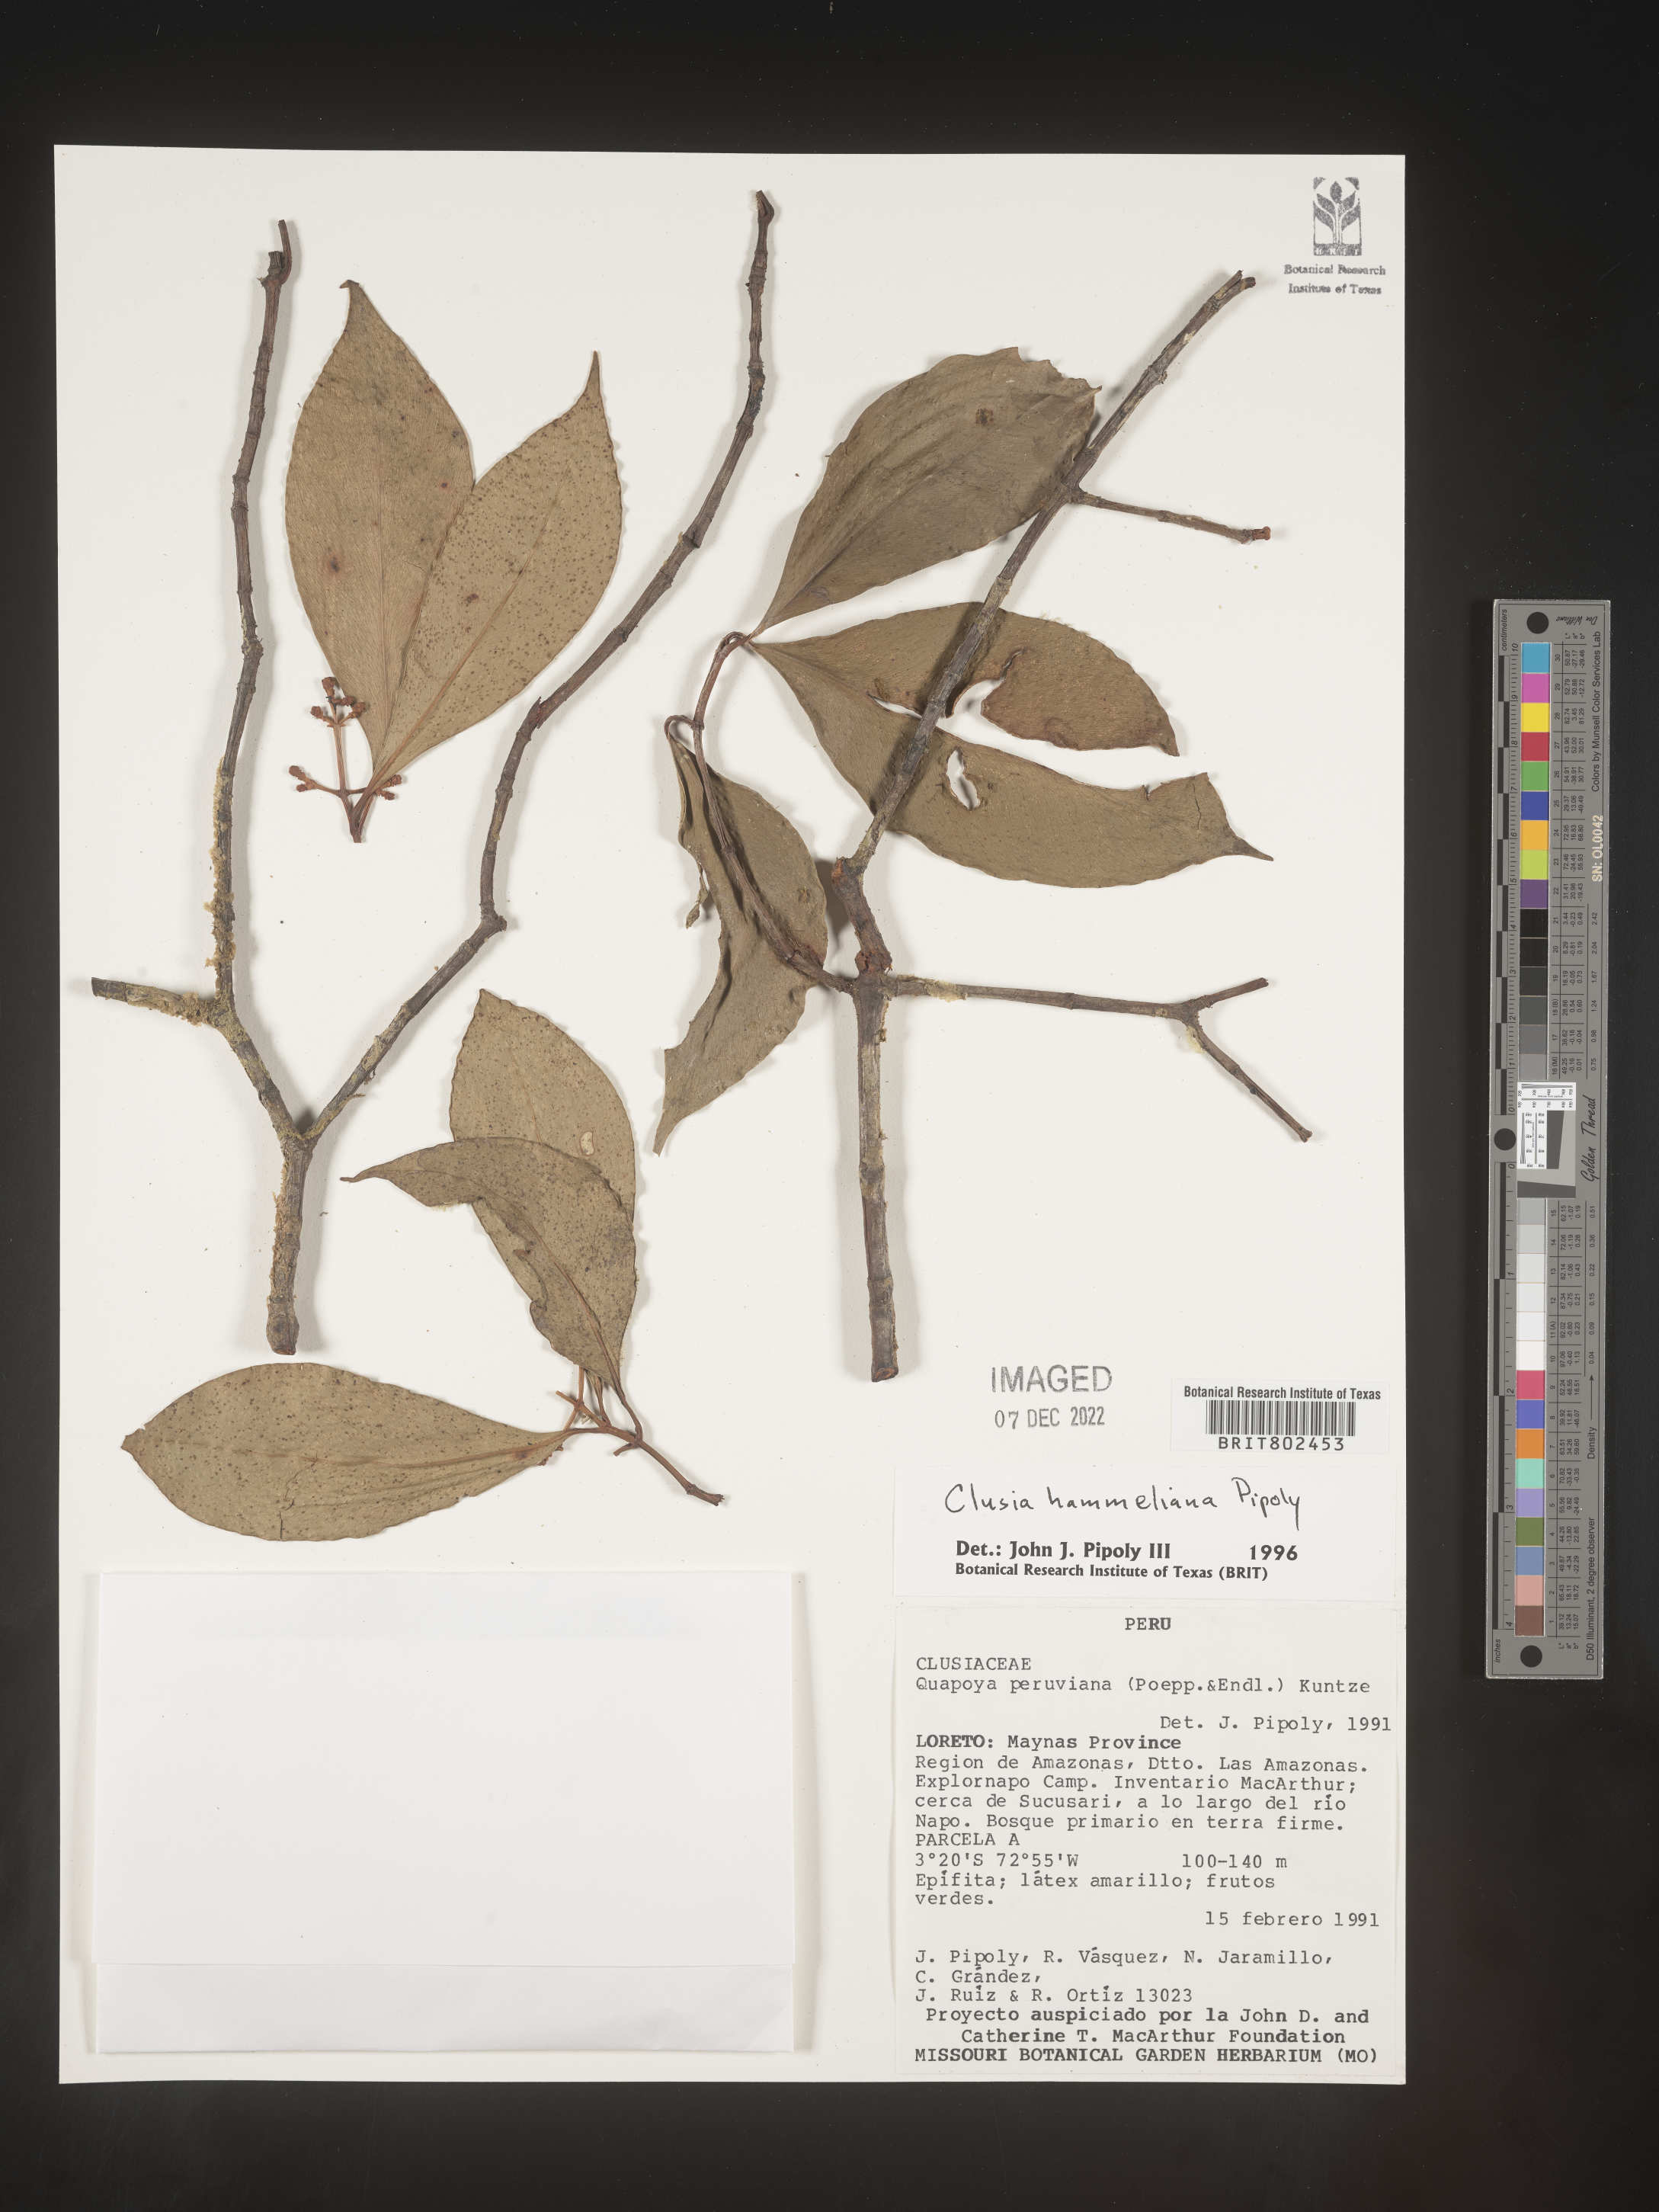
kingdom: Plantae
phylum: Tracheophyta
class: Magnoliopsida
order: Malpighiales
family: Clusiaceae
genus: Clusia
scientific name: Clusia hammeliana
